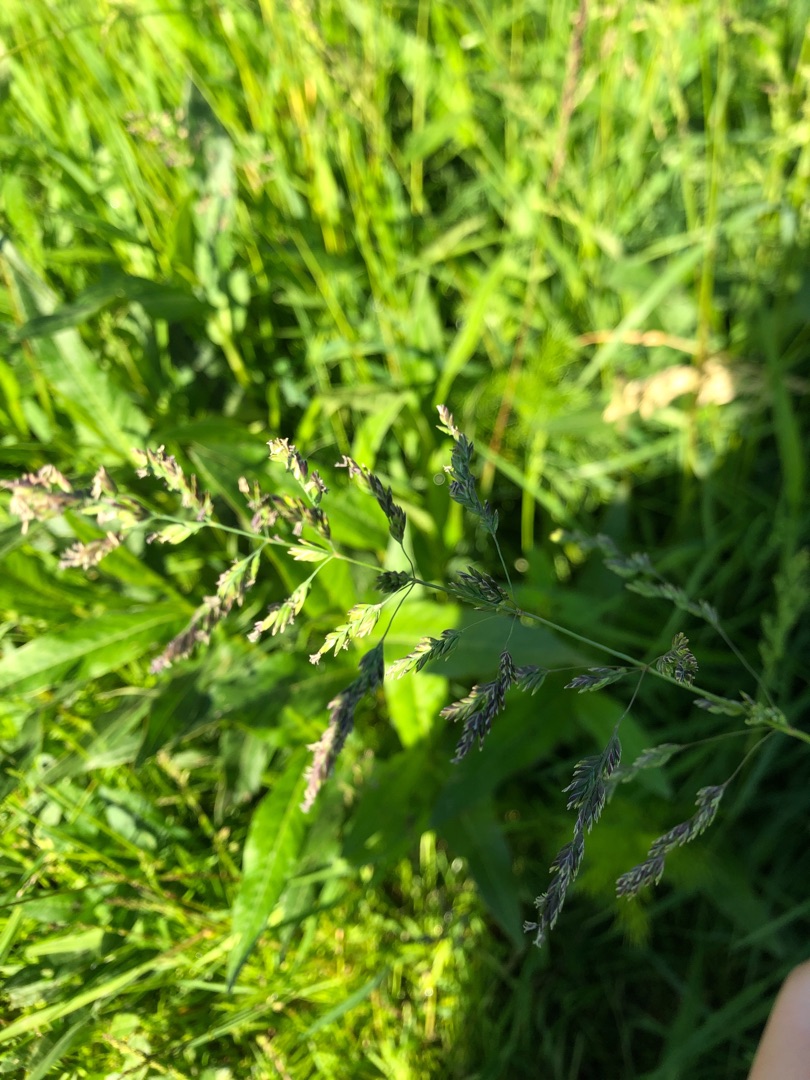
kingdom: Plantae
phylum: Tracheophyta
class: Liliopsida
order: Poales
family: Poaceae
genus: Poa
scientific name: Poa trivialis
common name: Almindelig rapgræs
